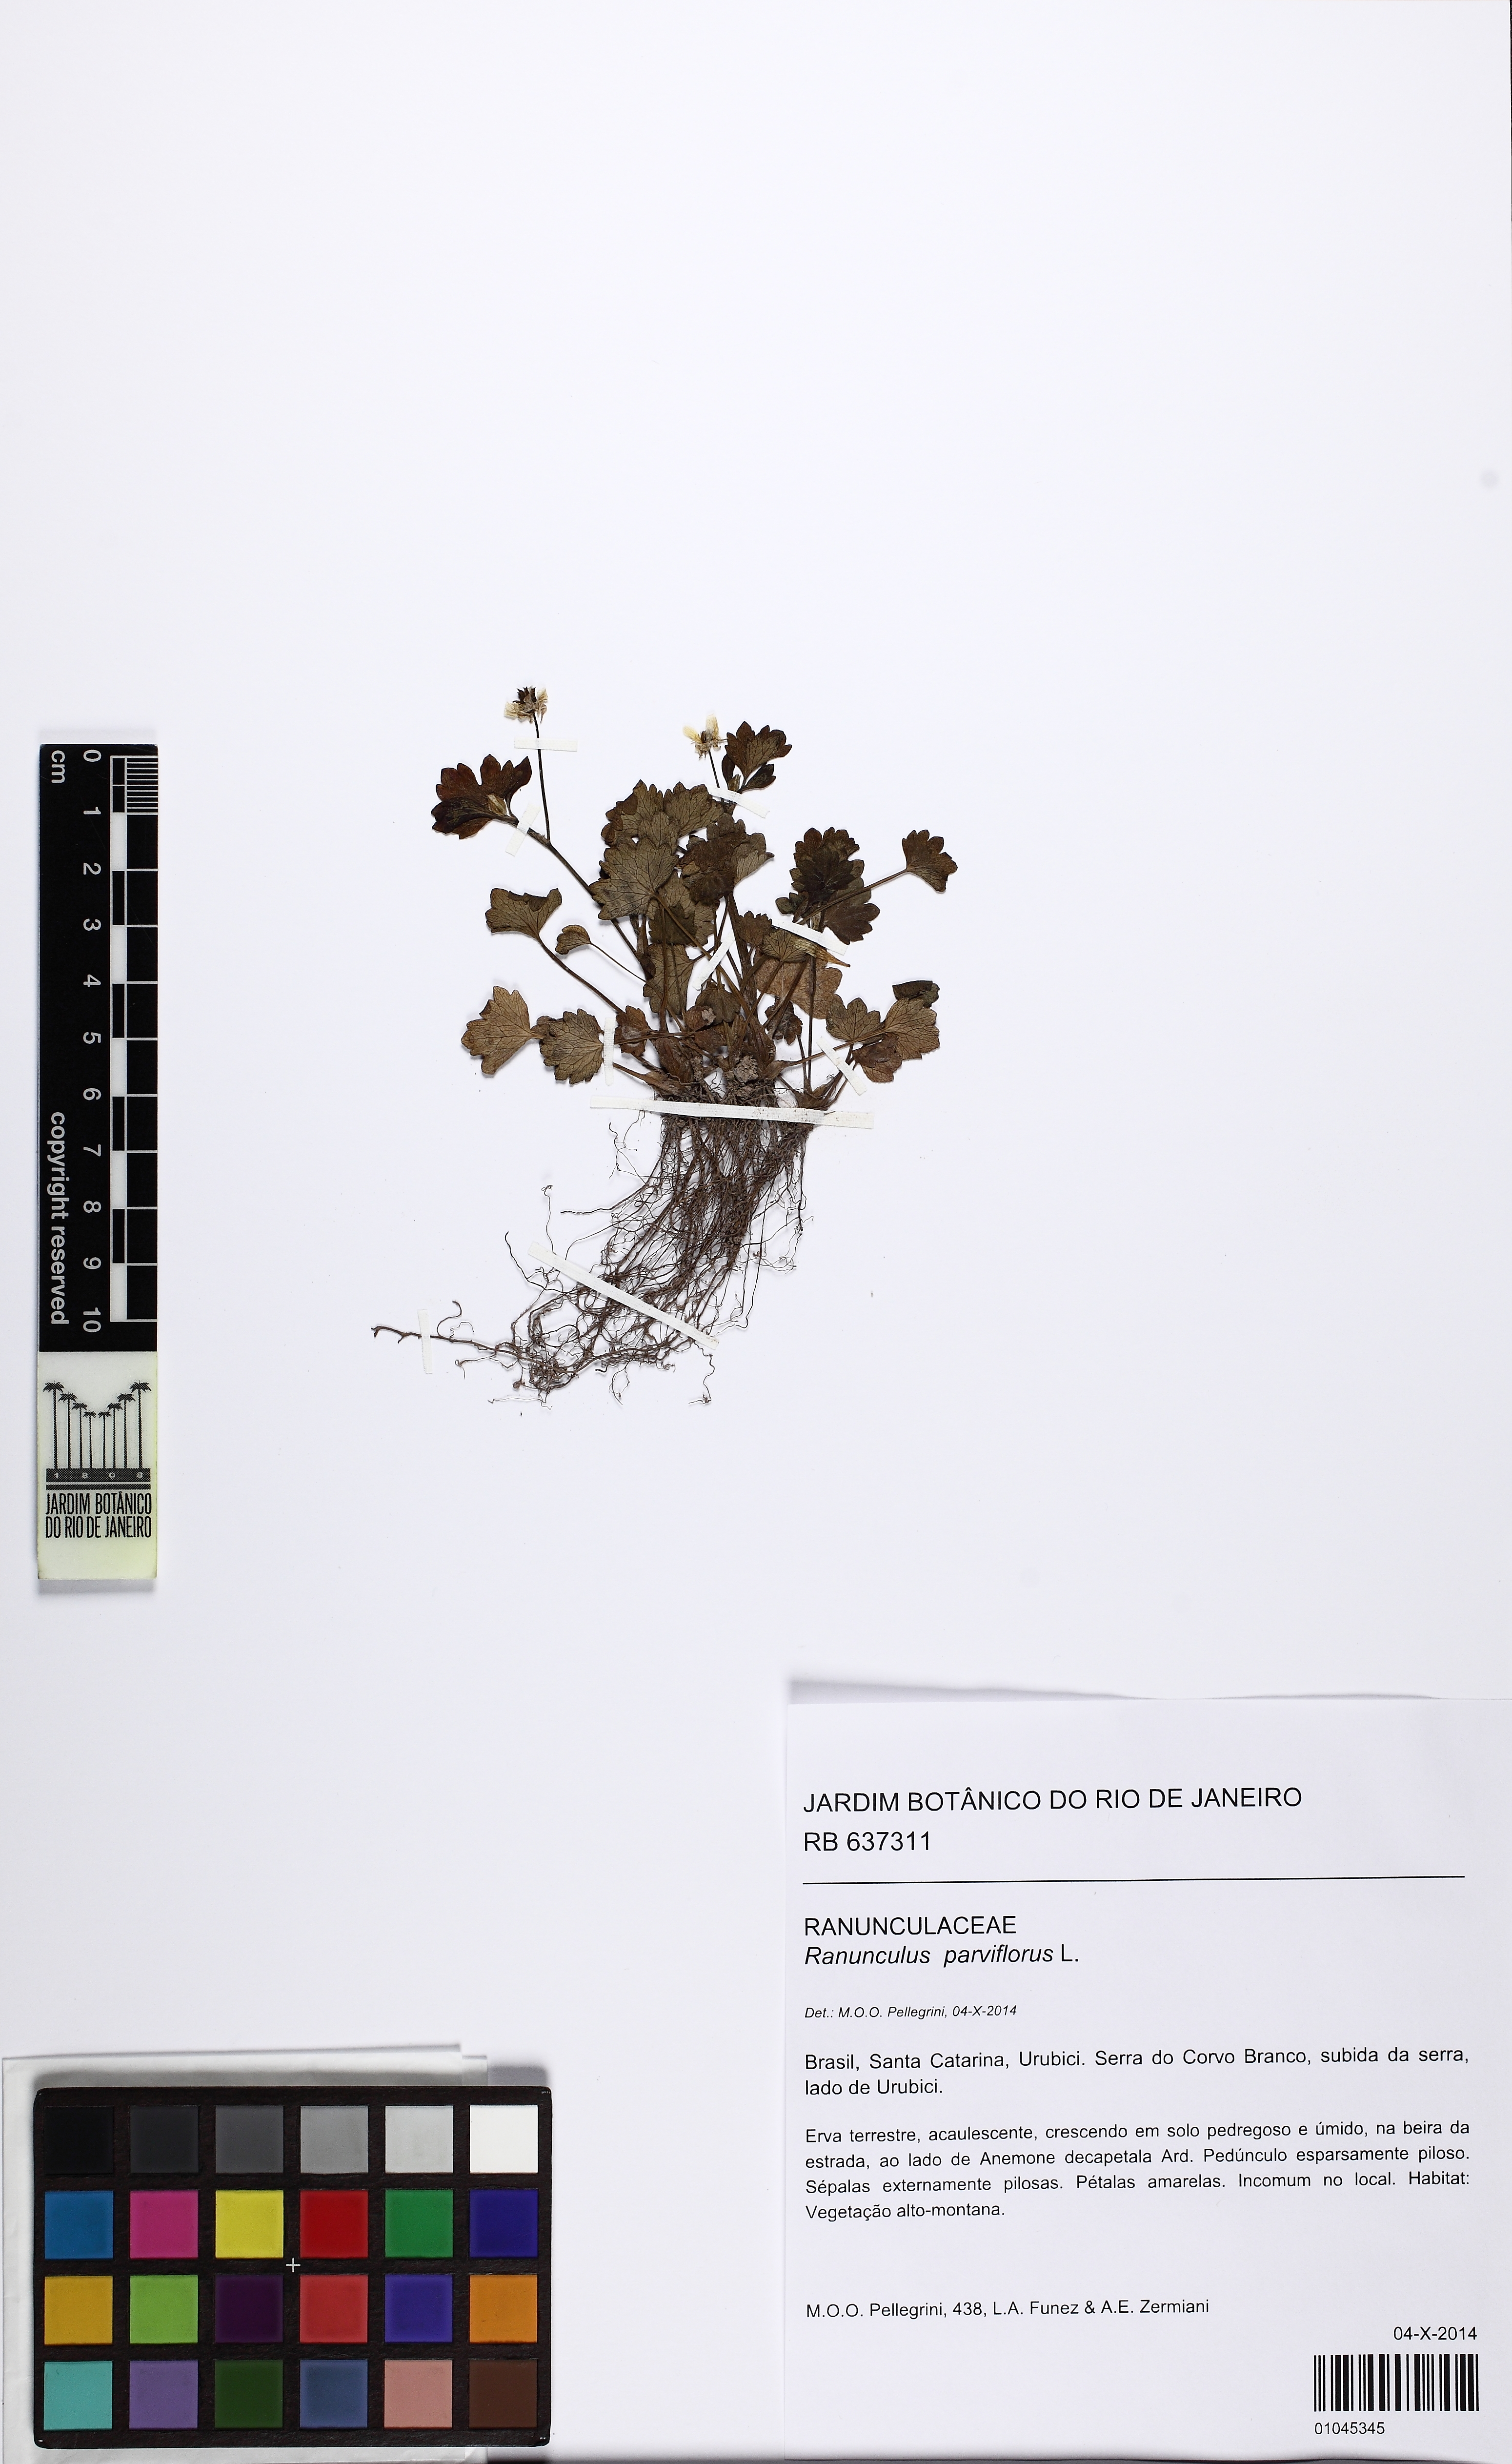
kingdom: Plantae
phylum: Tracheophyta
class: Magnoliopsida
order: Ranunculales
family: Ranunculaceae
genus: Ranunculus
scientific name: Ranunculus parviflorus
